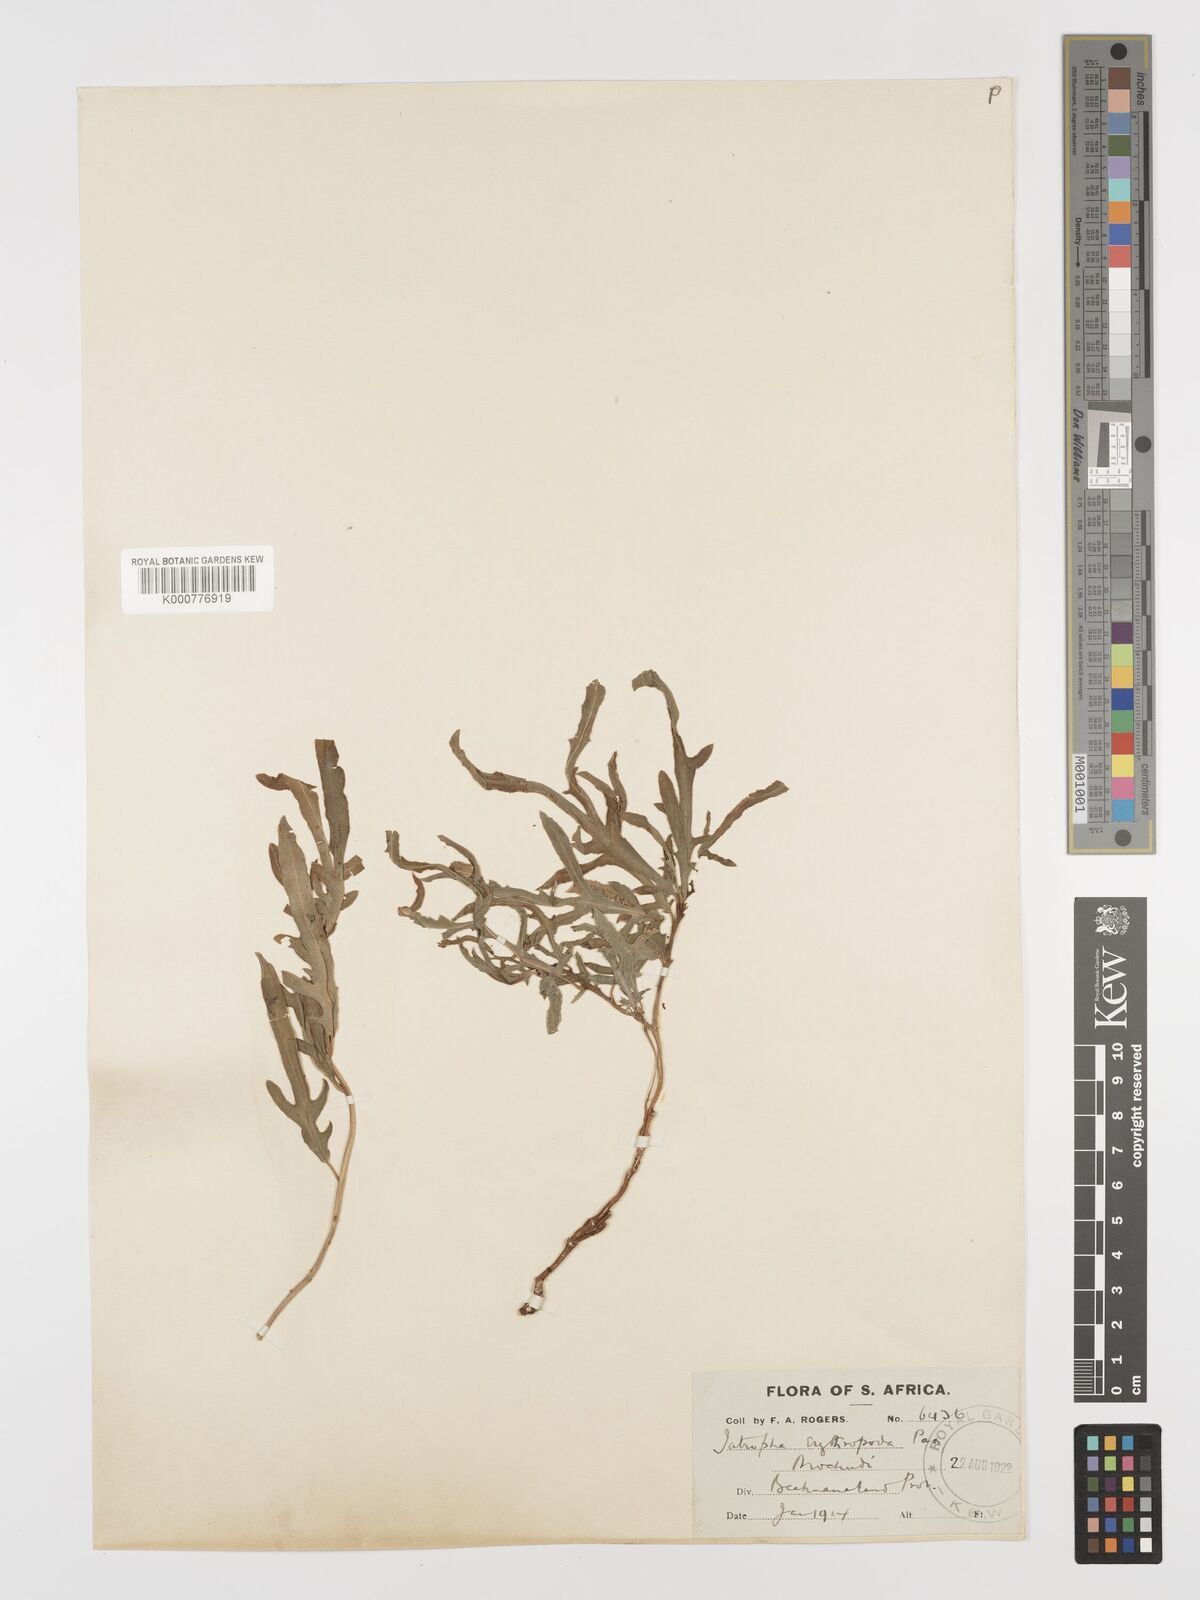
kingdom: Plantae
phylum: Tracheophyta
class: Magnoliopsida
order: Malpighiales
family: Euphorbiaceae
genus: Jatropha
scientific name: Jatropha erythropoda
